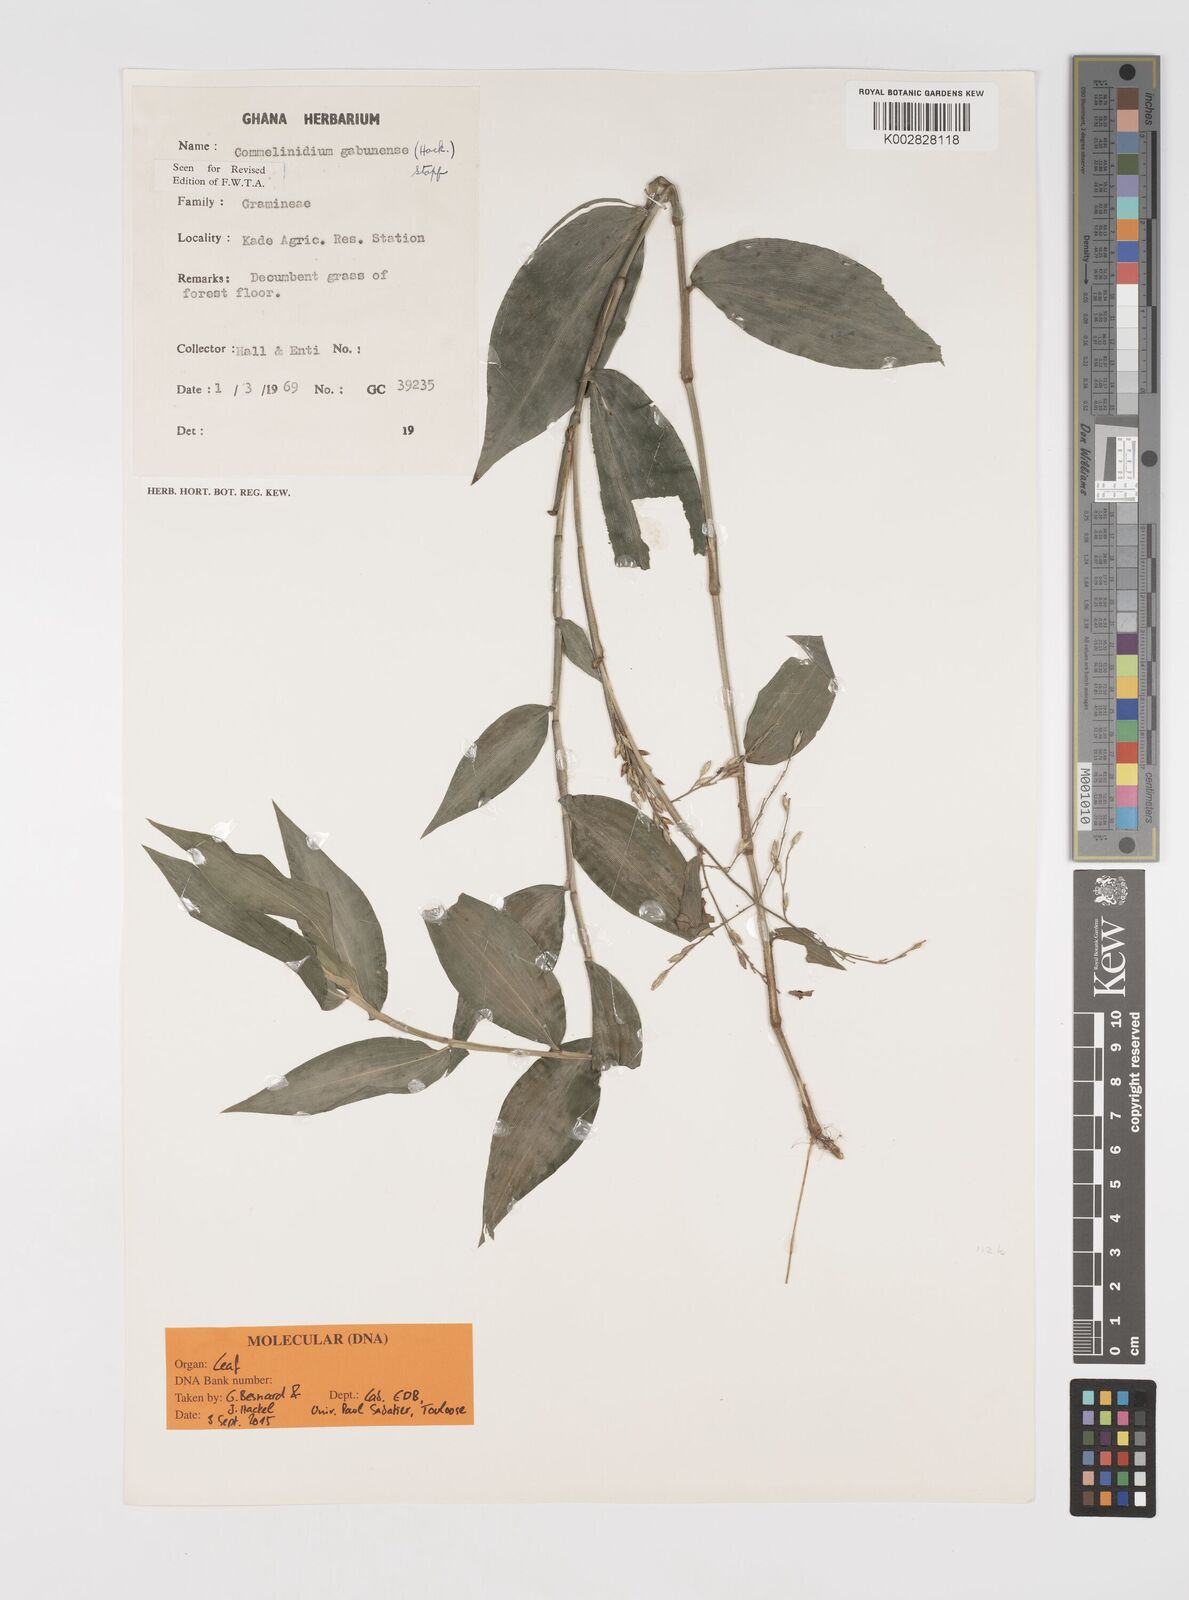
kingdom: Plantae
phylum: Tracheophyta
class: Liliopsida
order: Poales
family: Poaceae
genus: Acroceras
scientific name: Acroceras gabunense
